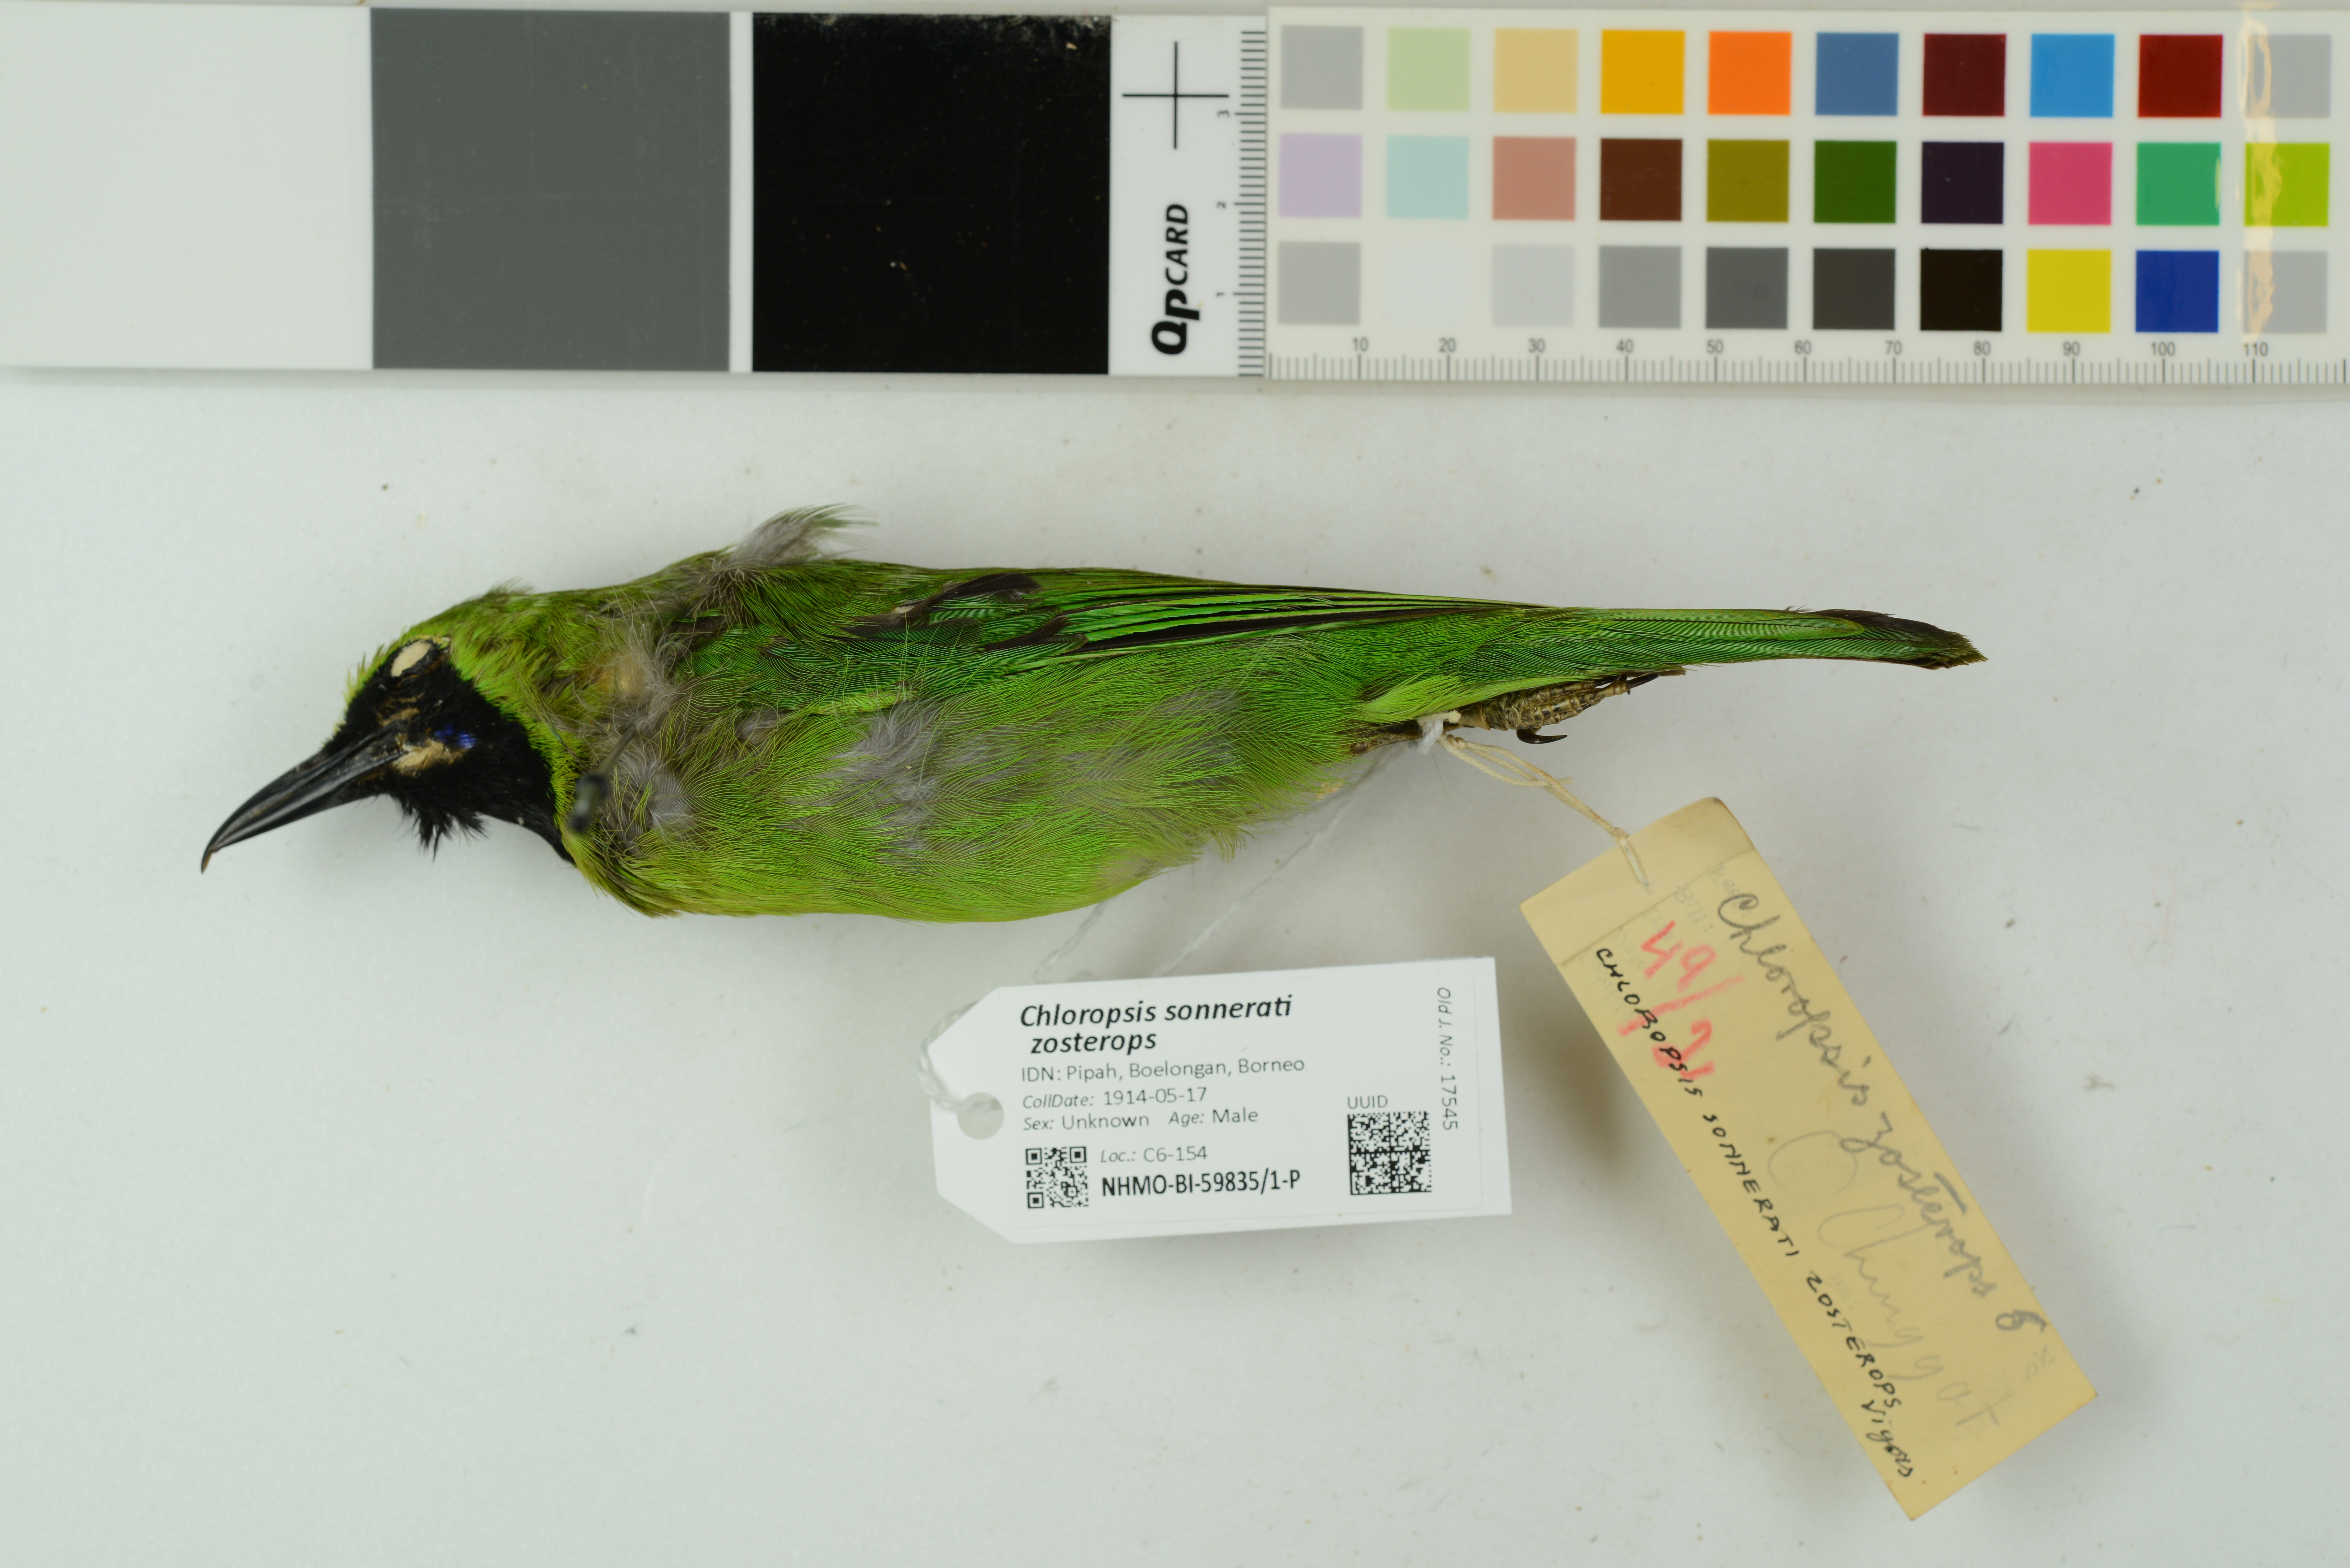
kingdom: Animalia
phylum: Chordata
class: Aves
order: Passeriformes
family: Chloropseidae
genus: Chloropsis
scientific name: Chloropsis sonnerati
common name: Greater green leafbird
